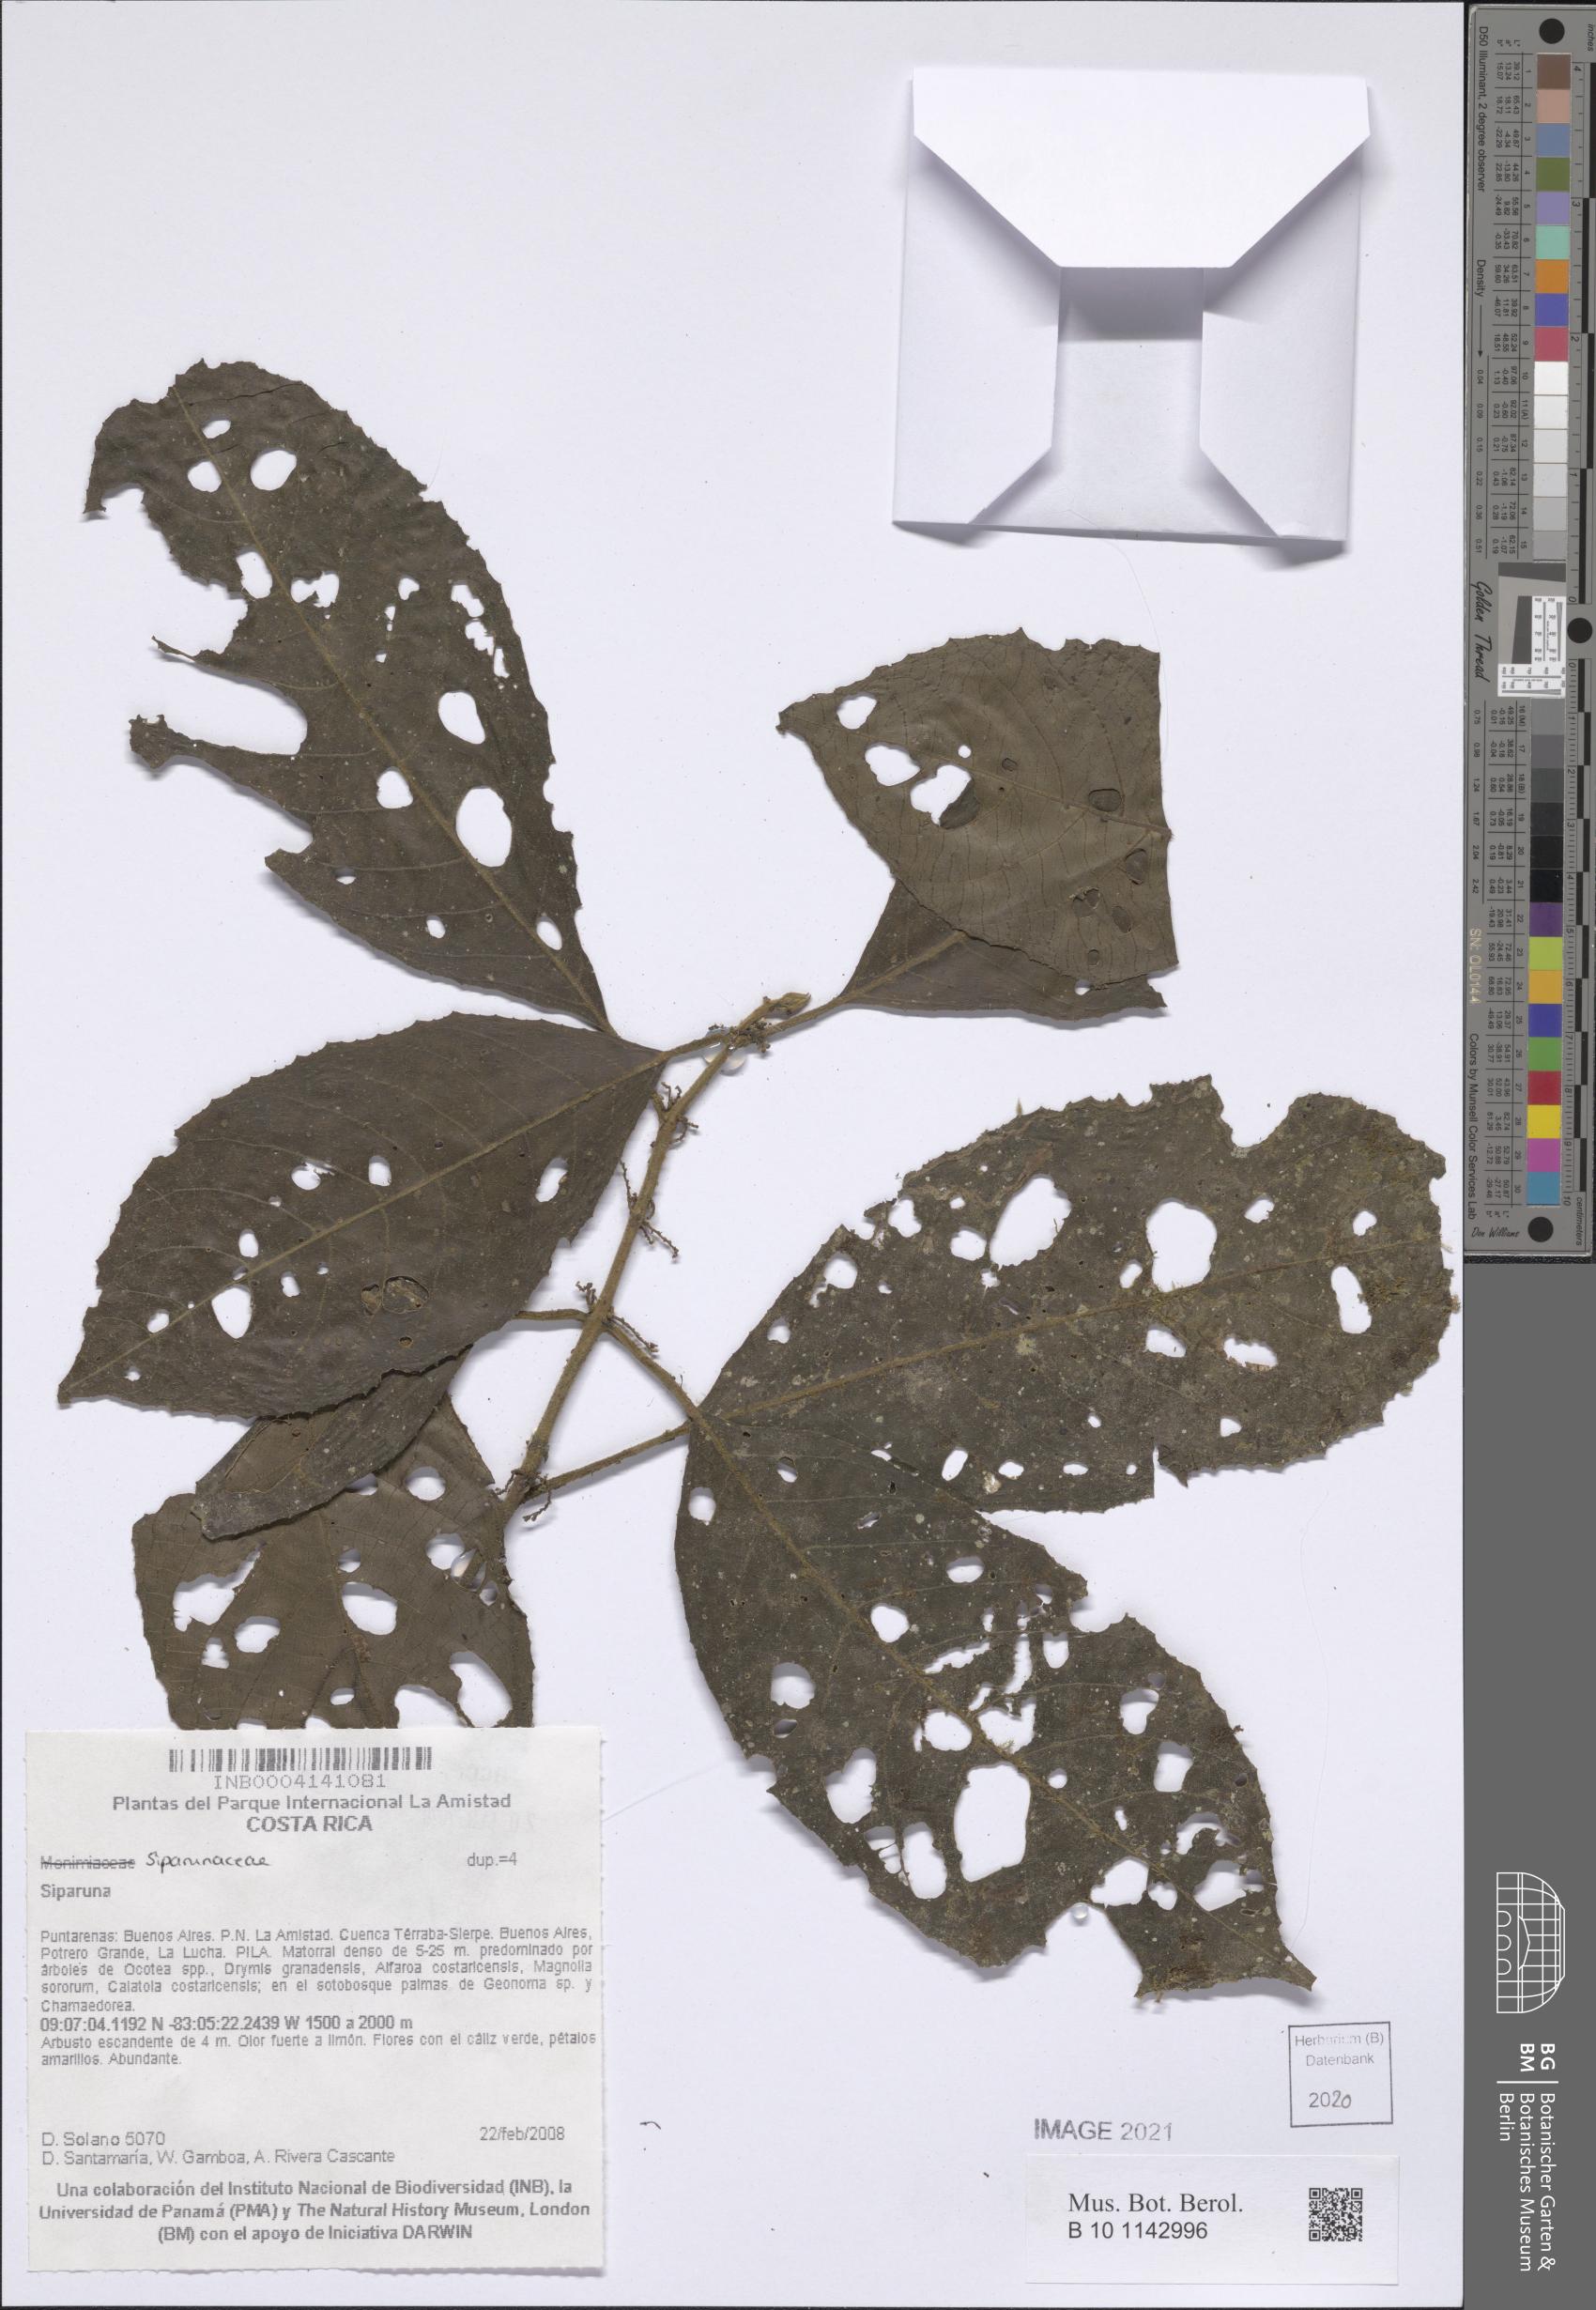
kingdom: Plantae
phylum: Tracheophyta
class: Magnoliopsida
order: Laurales
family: Siparunaceae
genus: Siparuna
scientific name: Siparuna
